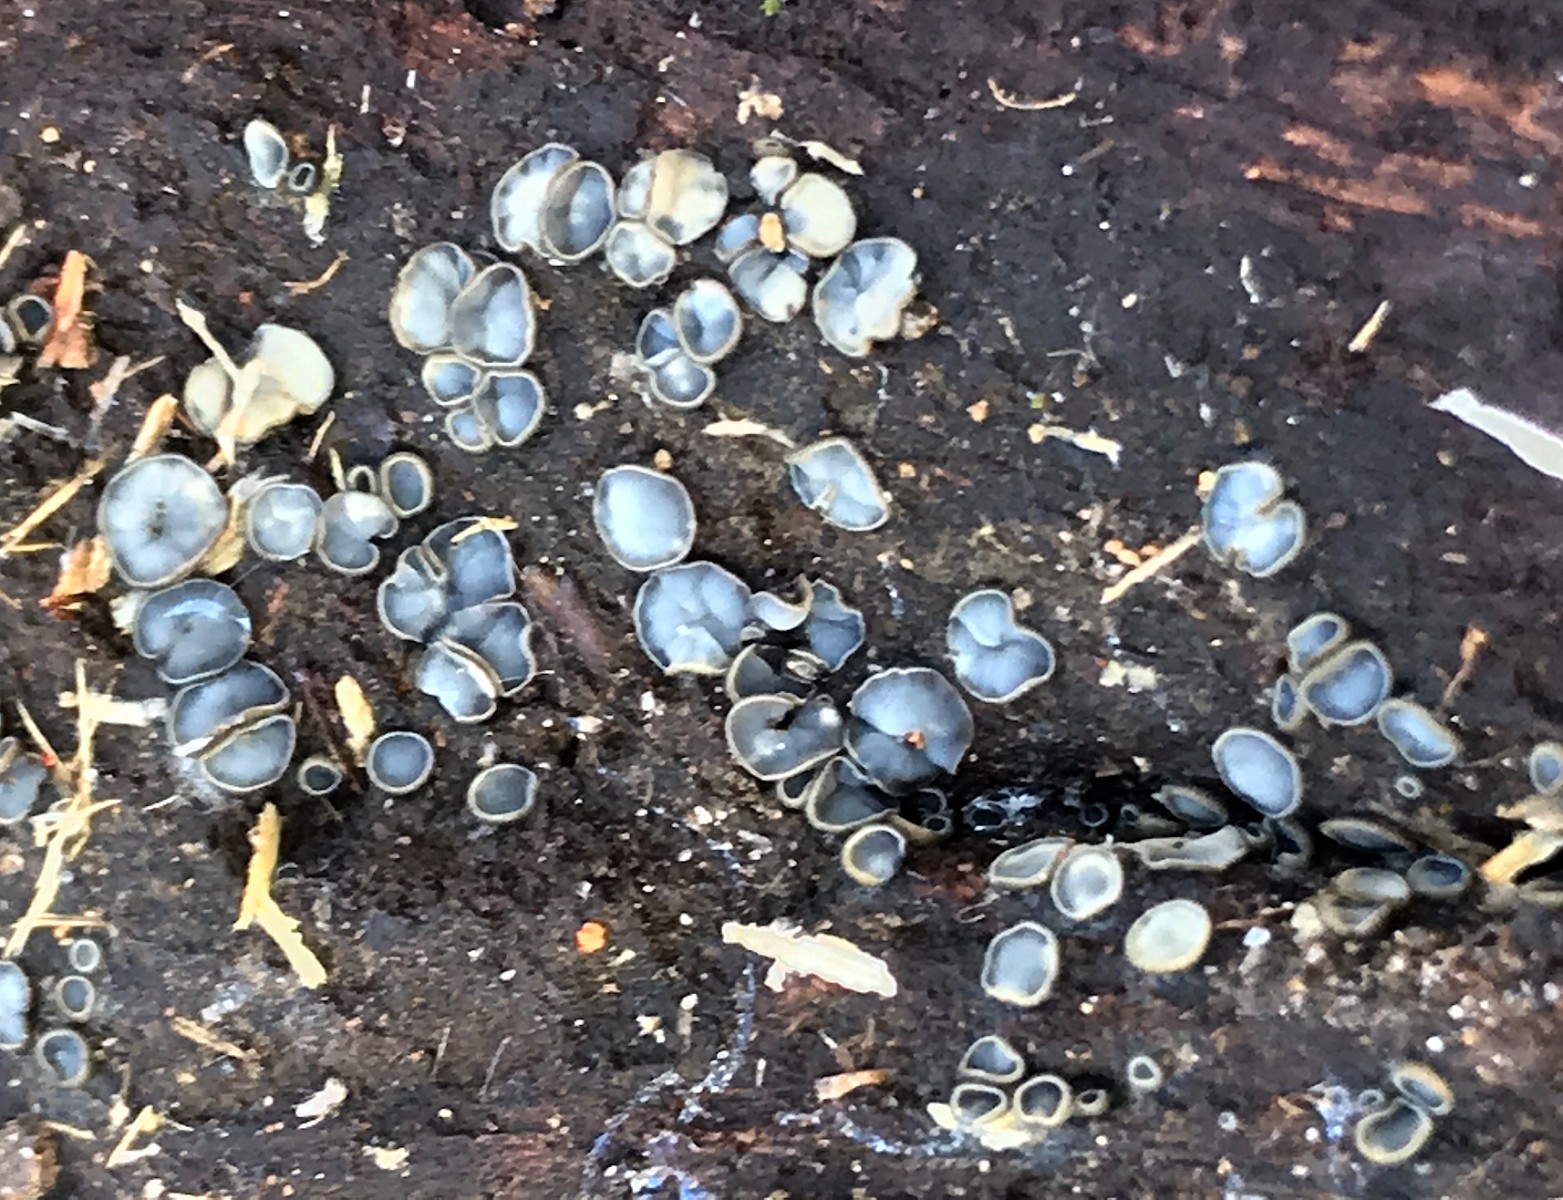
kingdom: Fungi
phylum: Ascomycota
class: Leotiomycetes
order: Helotiales
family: Mollisiaceae
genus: Mollisia
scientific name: Mollisia
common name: gråskive
